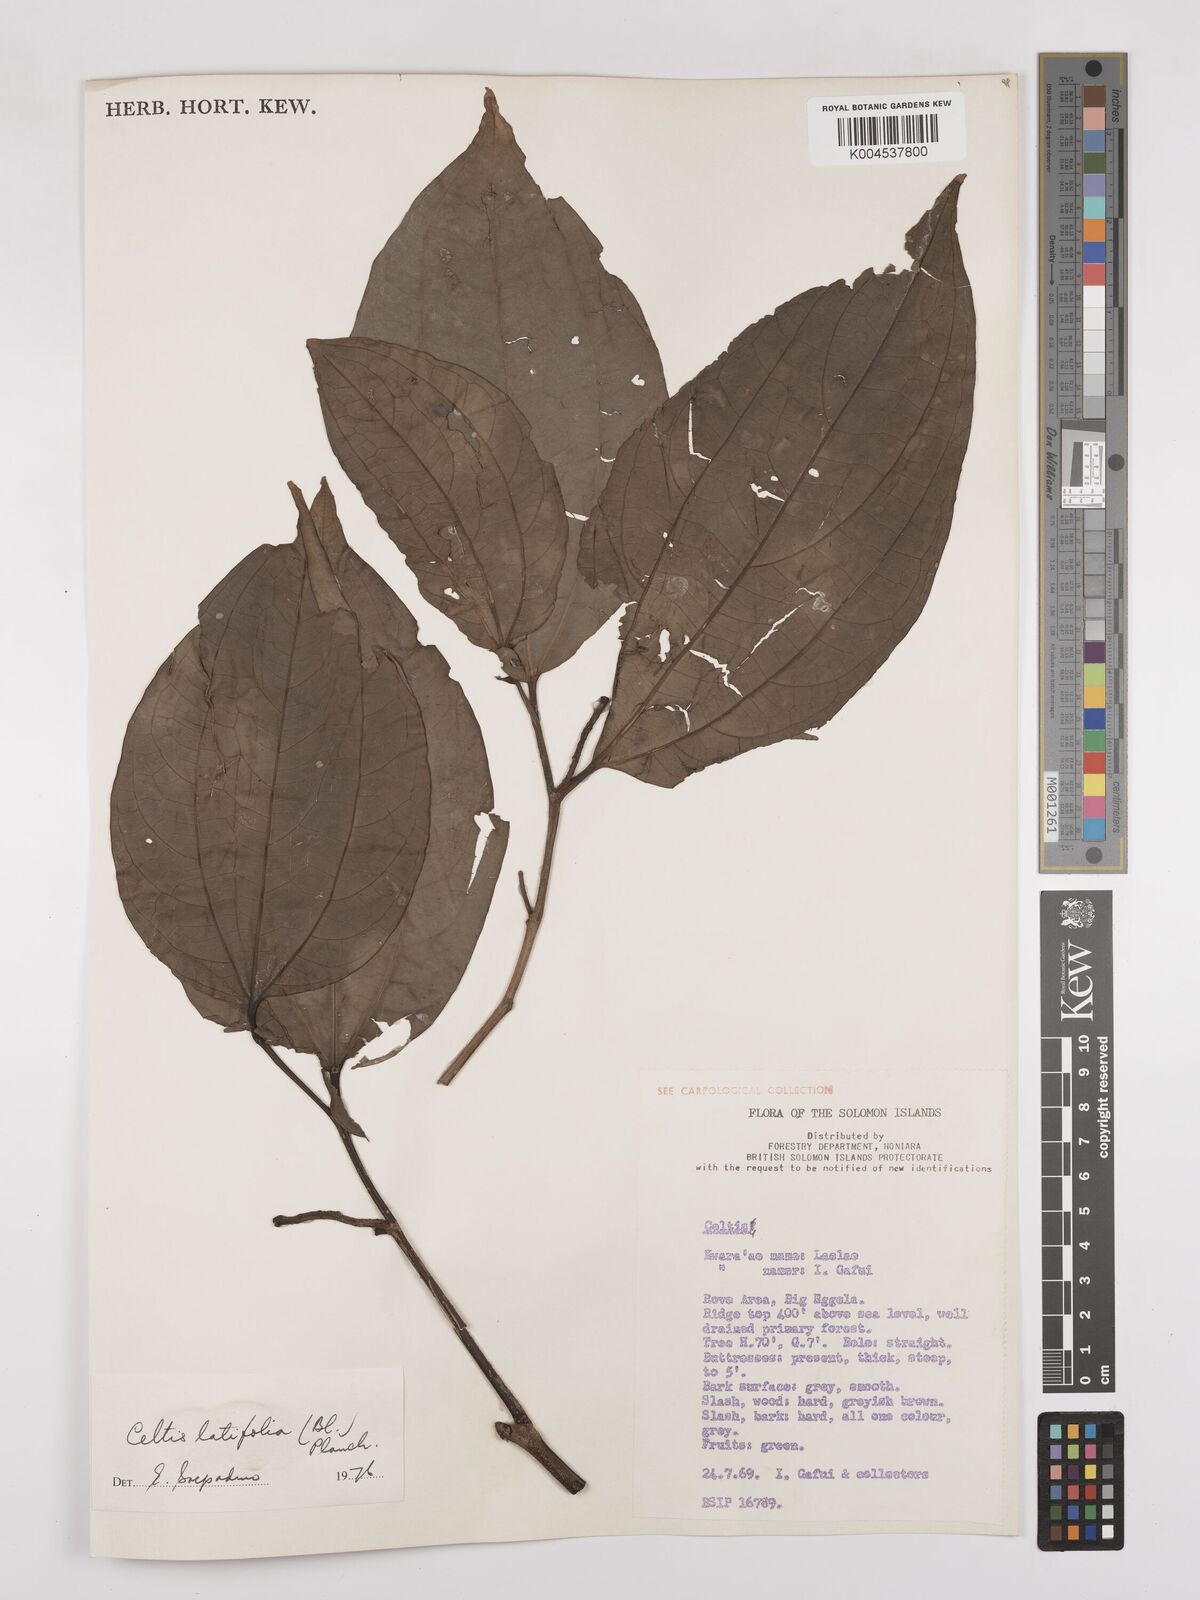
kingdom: Plantae
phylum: Tracheophyta
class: Magnoliopsida
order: Rosales
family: Cannabaceae
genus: Celtis
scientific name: Celtis latifolia
